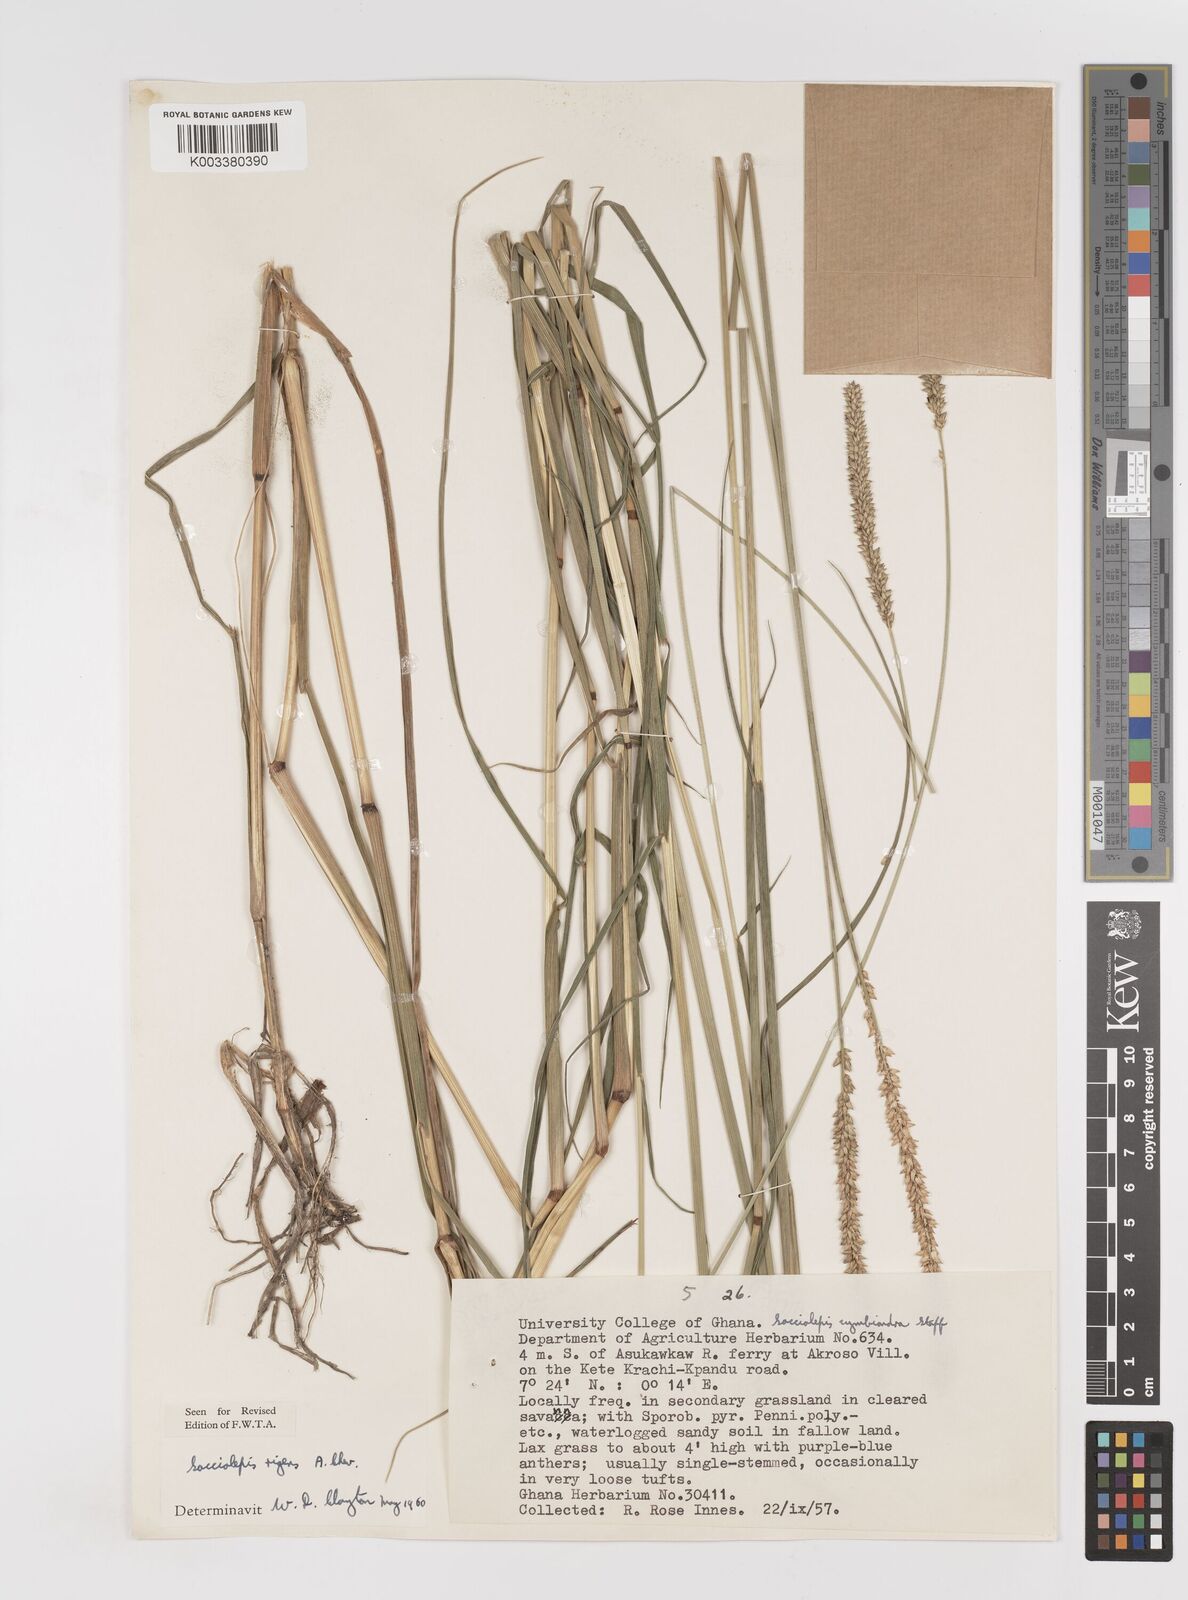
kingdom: Plantae
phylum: Tracheophyta
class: Liliopsida
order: Poales
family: Poaceae
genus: Sacciolepis
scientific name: Sacciolepis leptorrhachis
